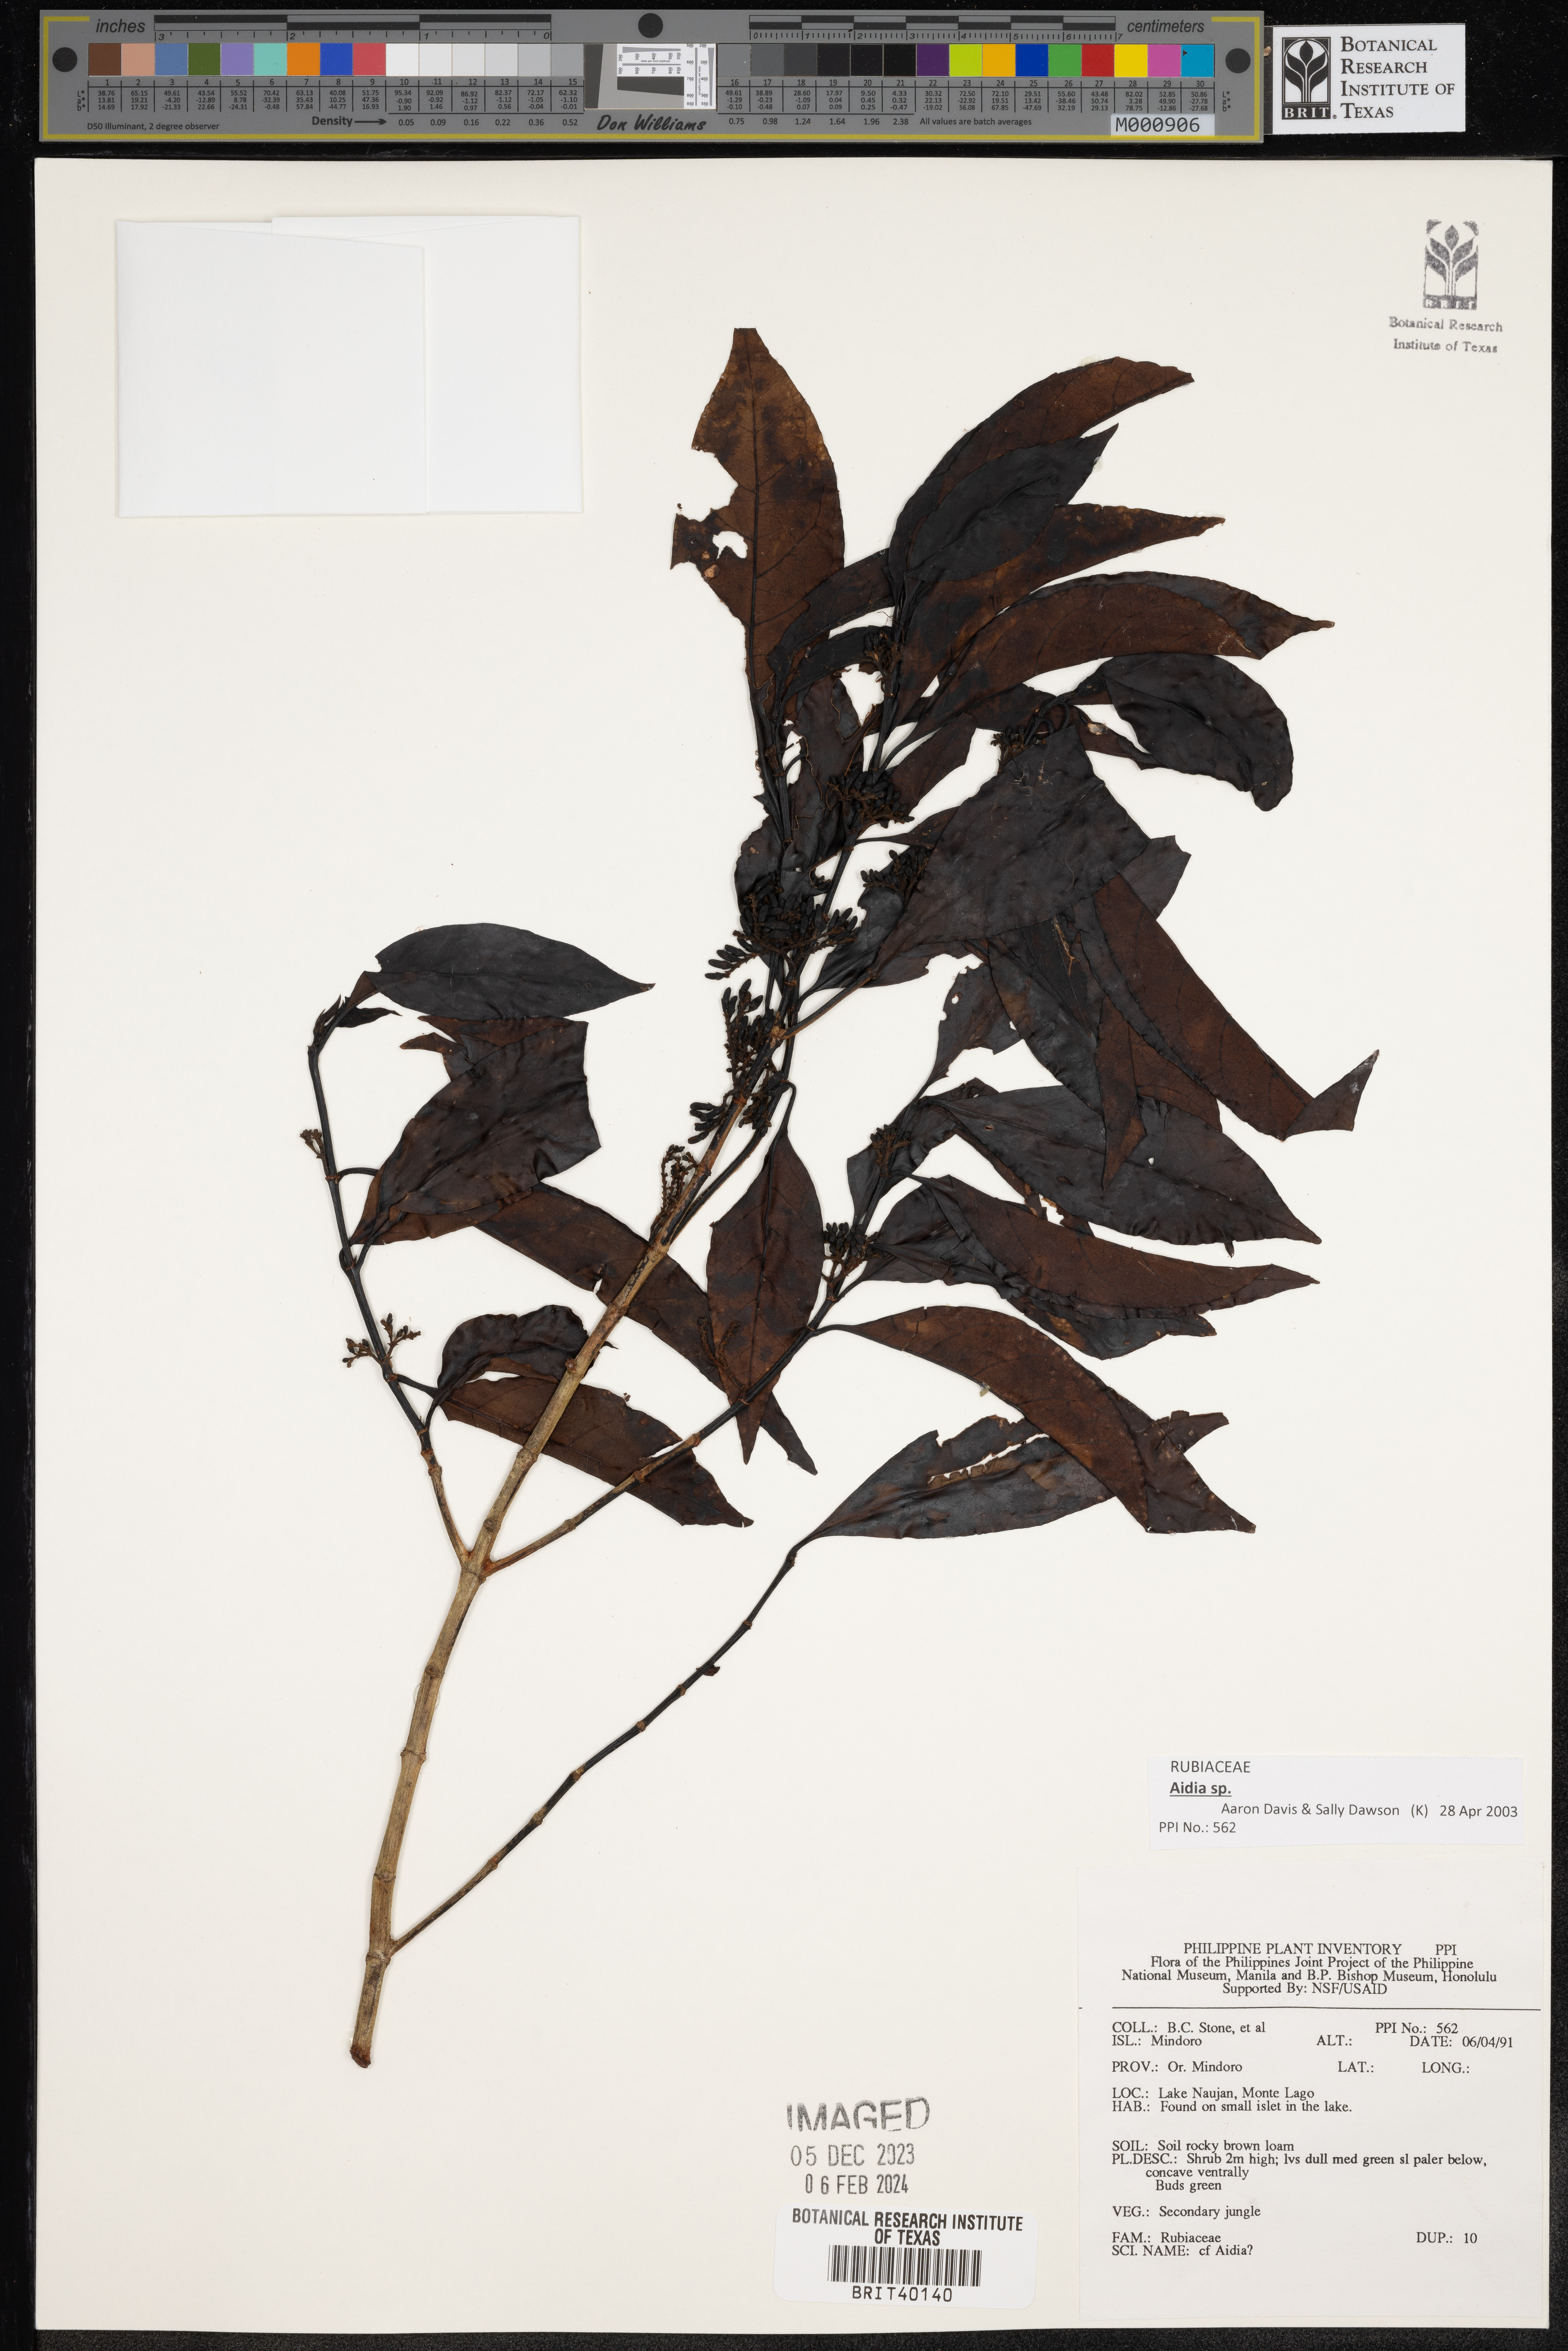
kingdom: Plantae
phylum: Tracheophyta
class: Magnoliopsida
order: Gentianales
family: Rubiaceae
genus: Aidia
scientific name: Aidia
